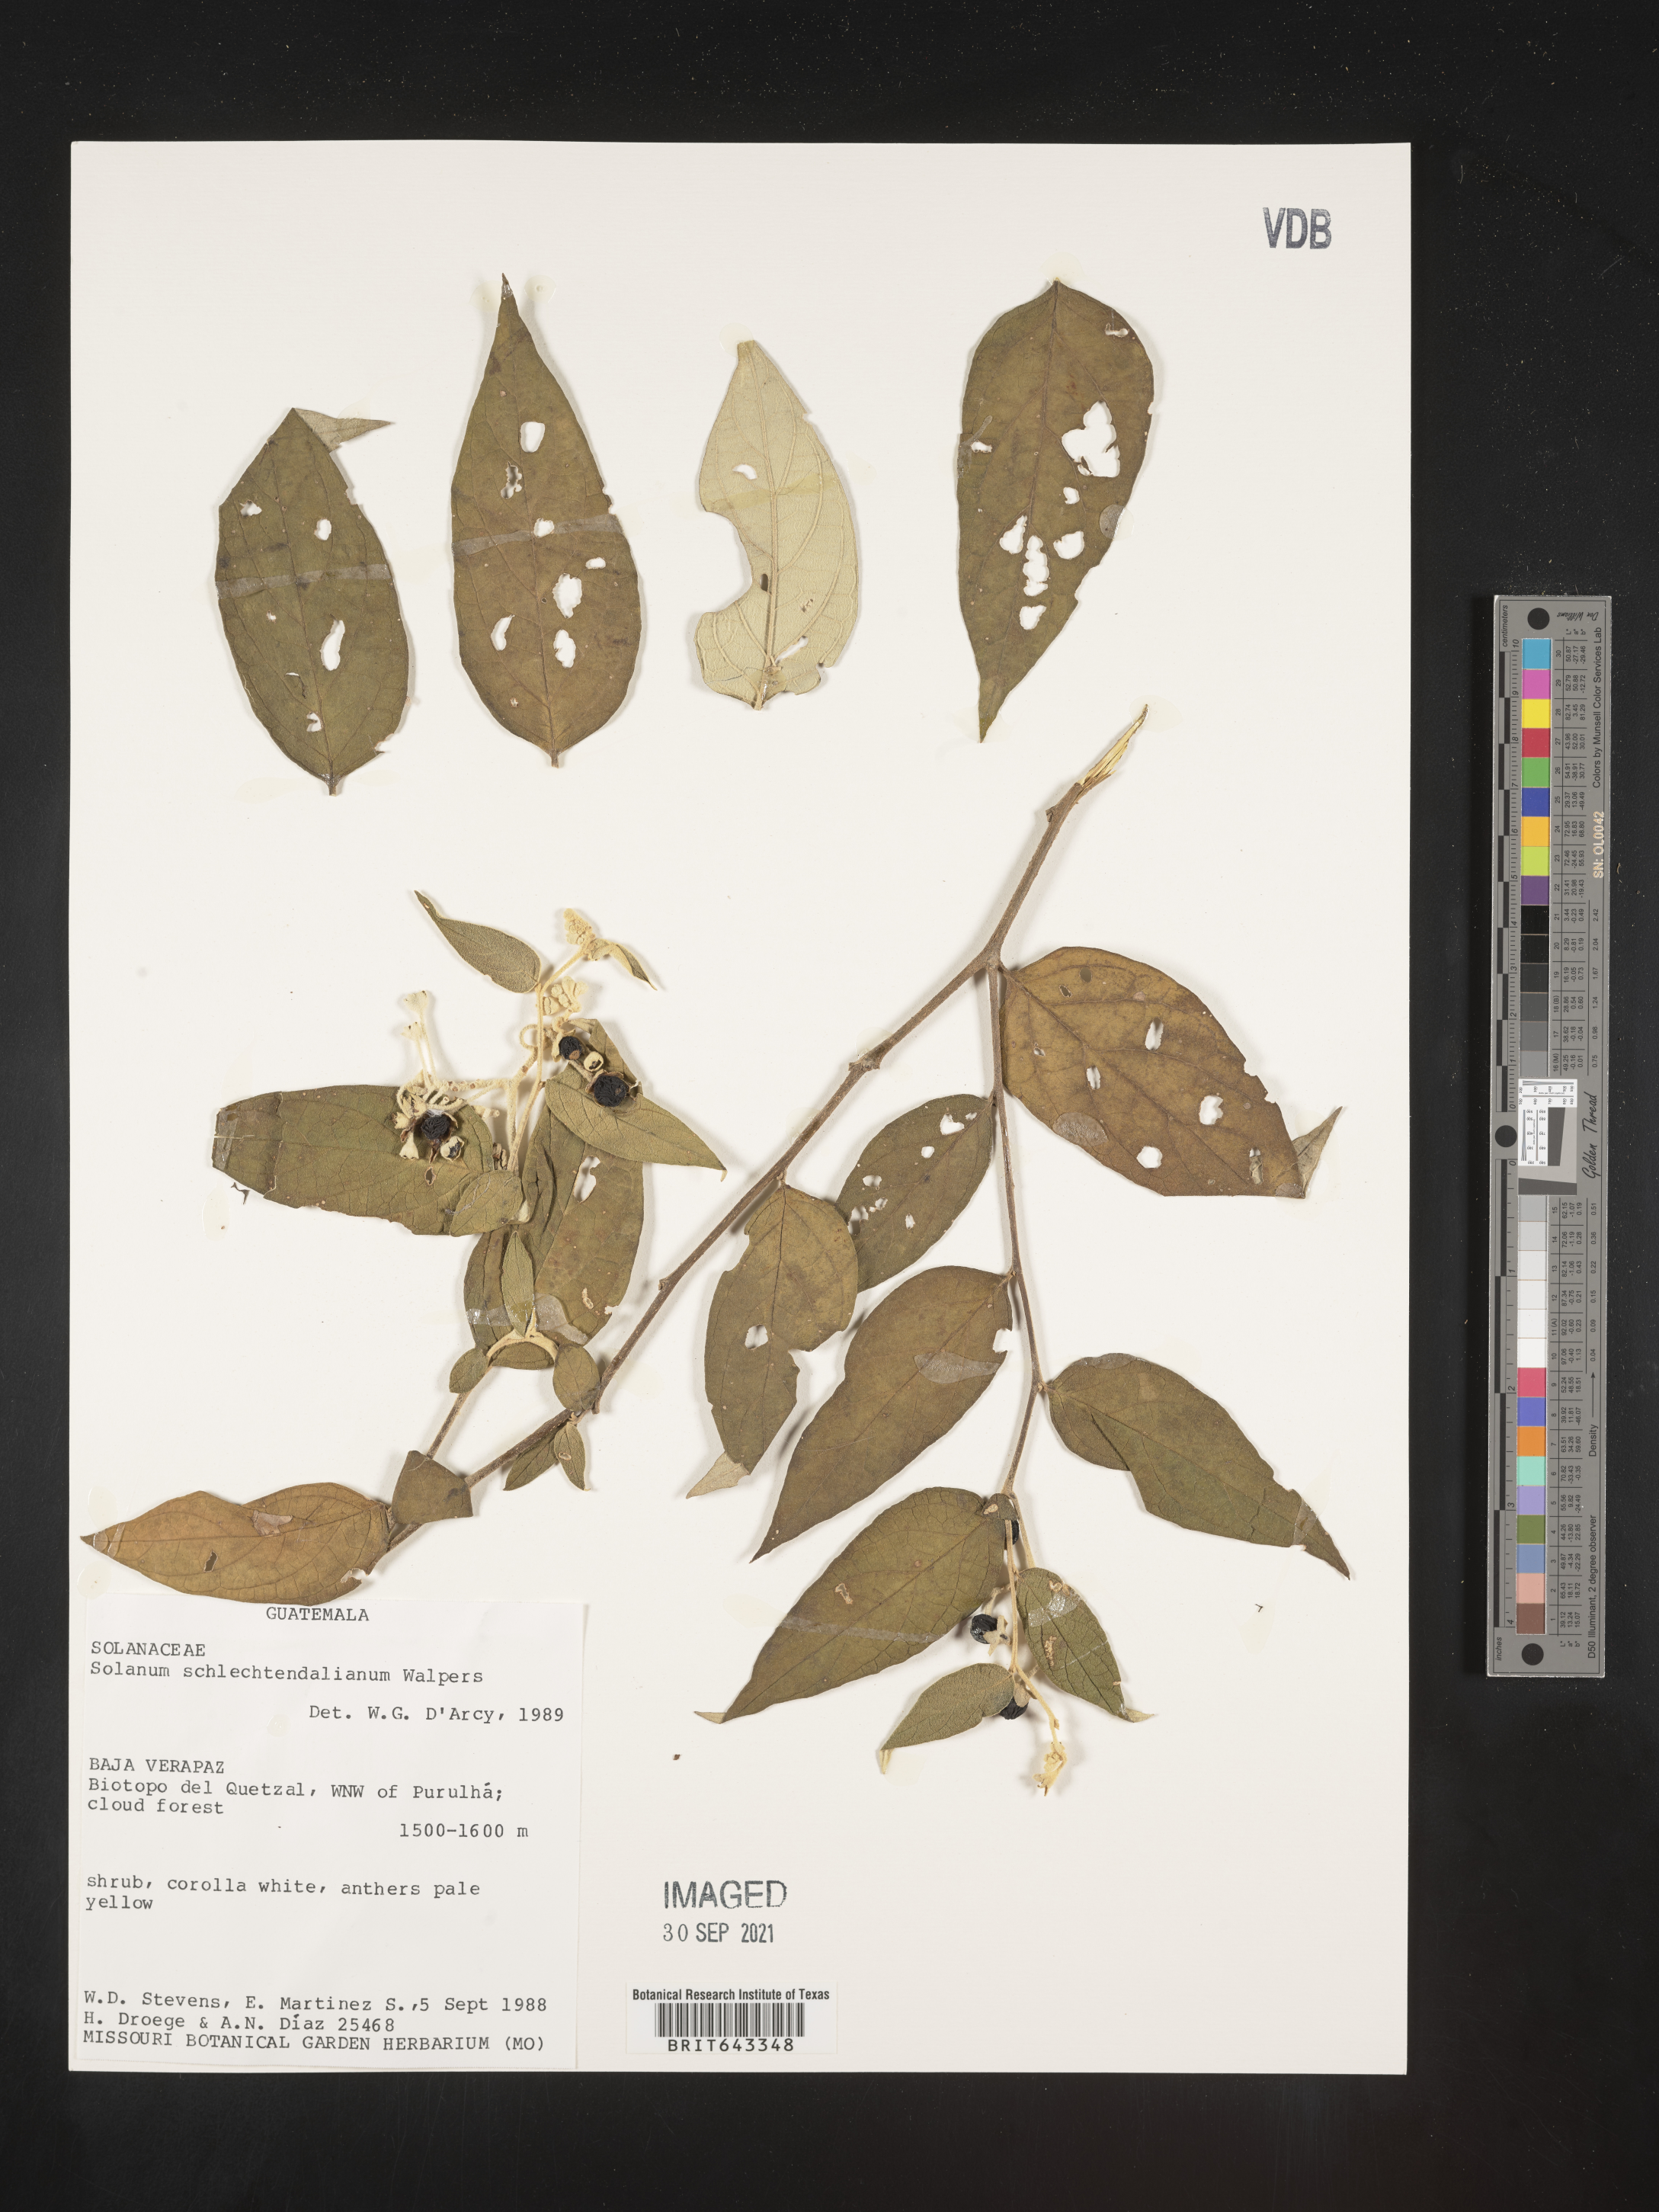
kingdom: Plantae
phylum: Tracheophyta
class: Magnoliopsida
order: Solanales
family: Solanaceae
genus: Solanum
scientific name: Solanum
